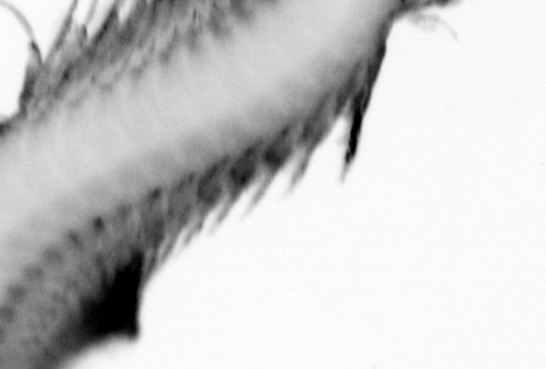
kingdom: Animalia
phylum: Annelida
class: Polychaeta
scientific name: Polychaeta
